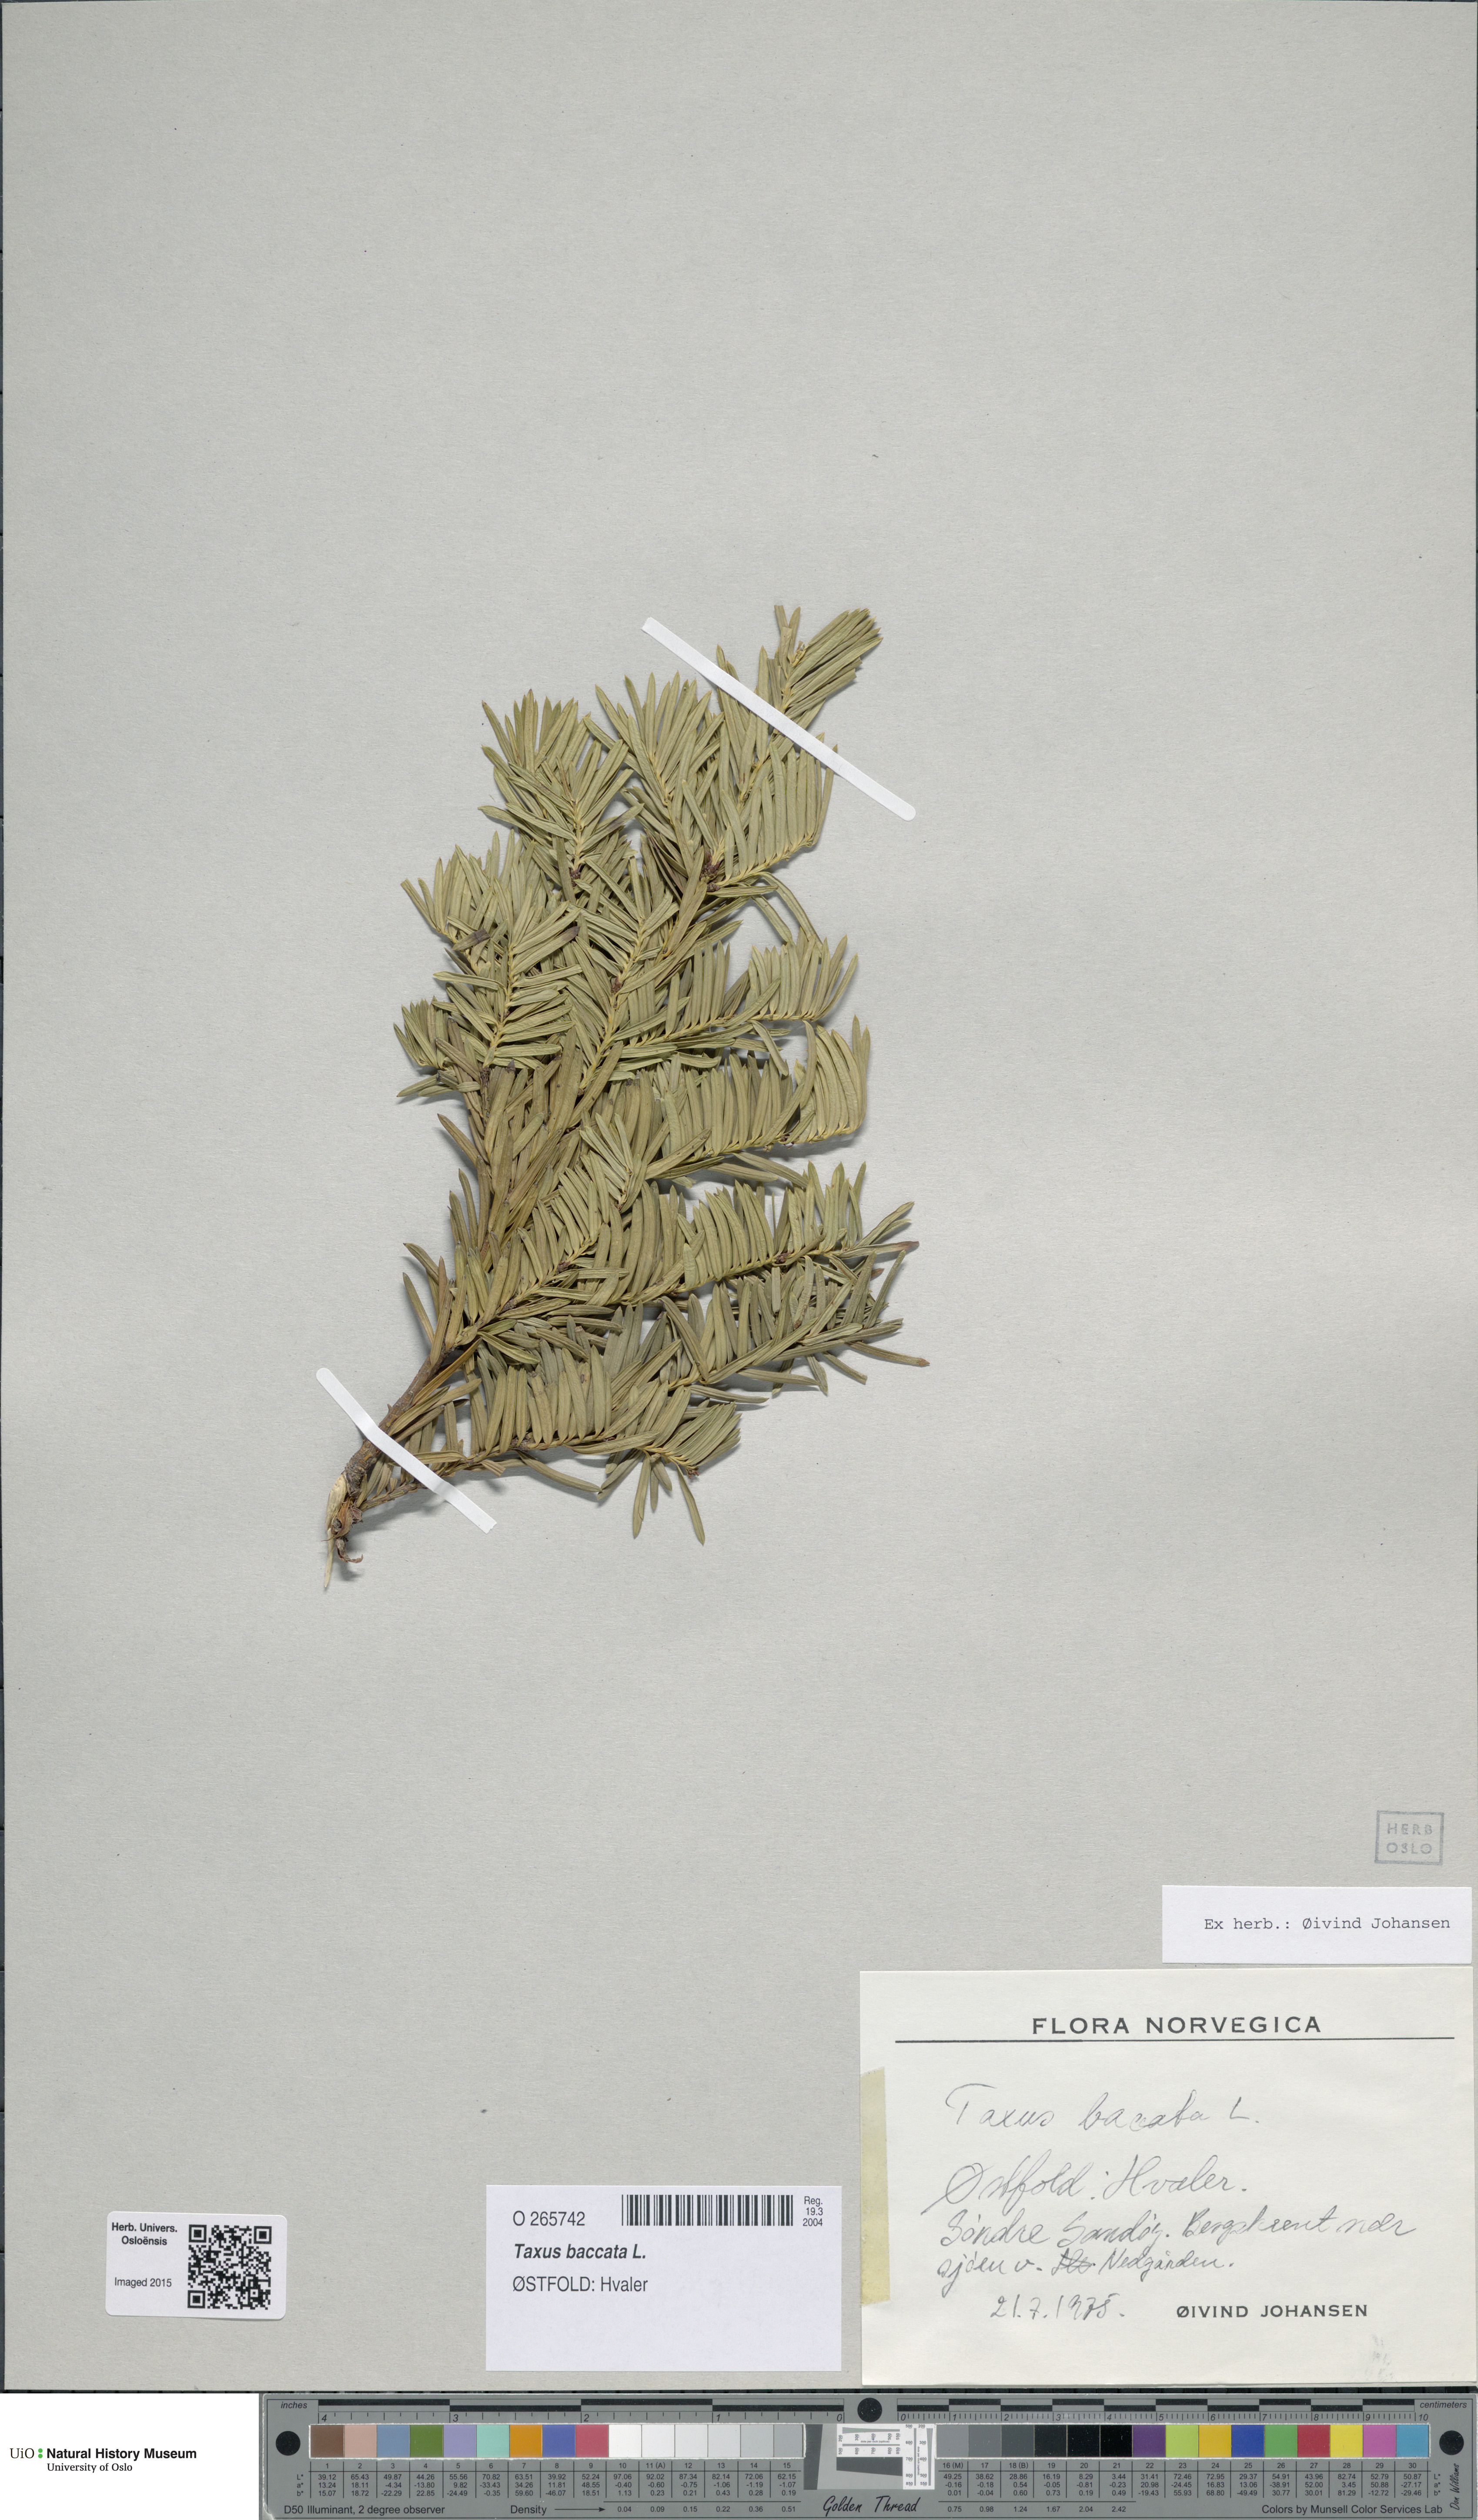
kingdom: Plantae
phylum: Tracheophyta
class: Pinopsida
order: Pinales
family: Taxaceae
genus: Taxus
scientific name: Taxus baccata
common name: Yew
